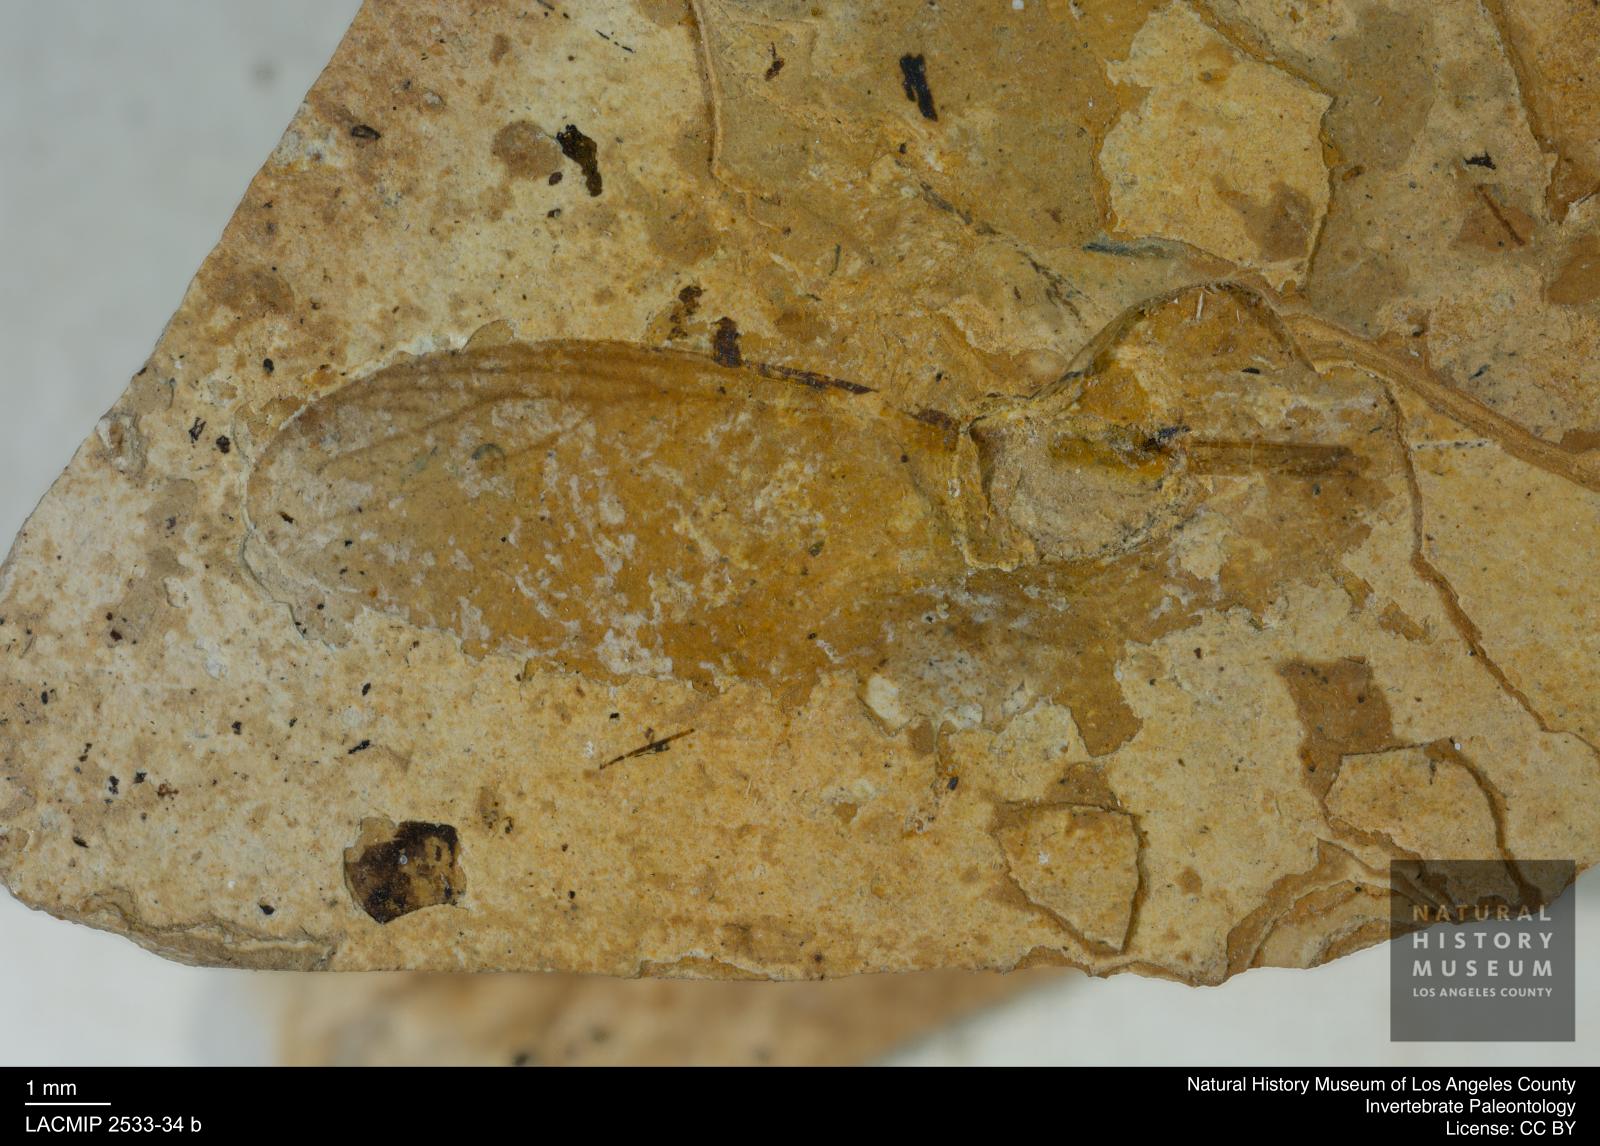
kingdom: Animalia
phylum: Arthropoda
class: Insecta
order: Blattodea
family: Hodotermitidae
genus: Ulmeriella
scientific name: Ulmeriella bauckhorni
